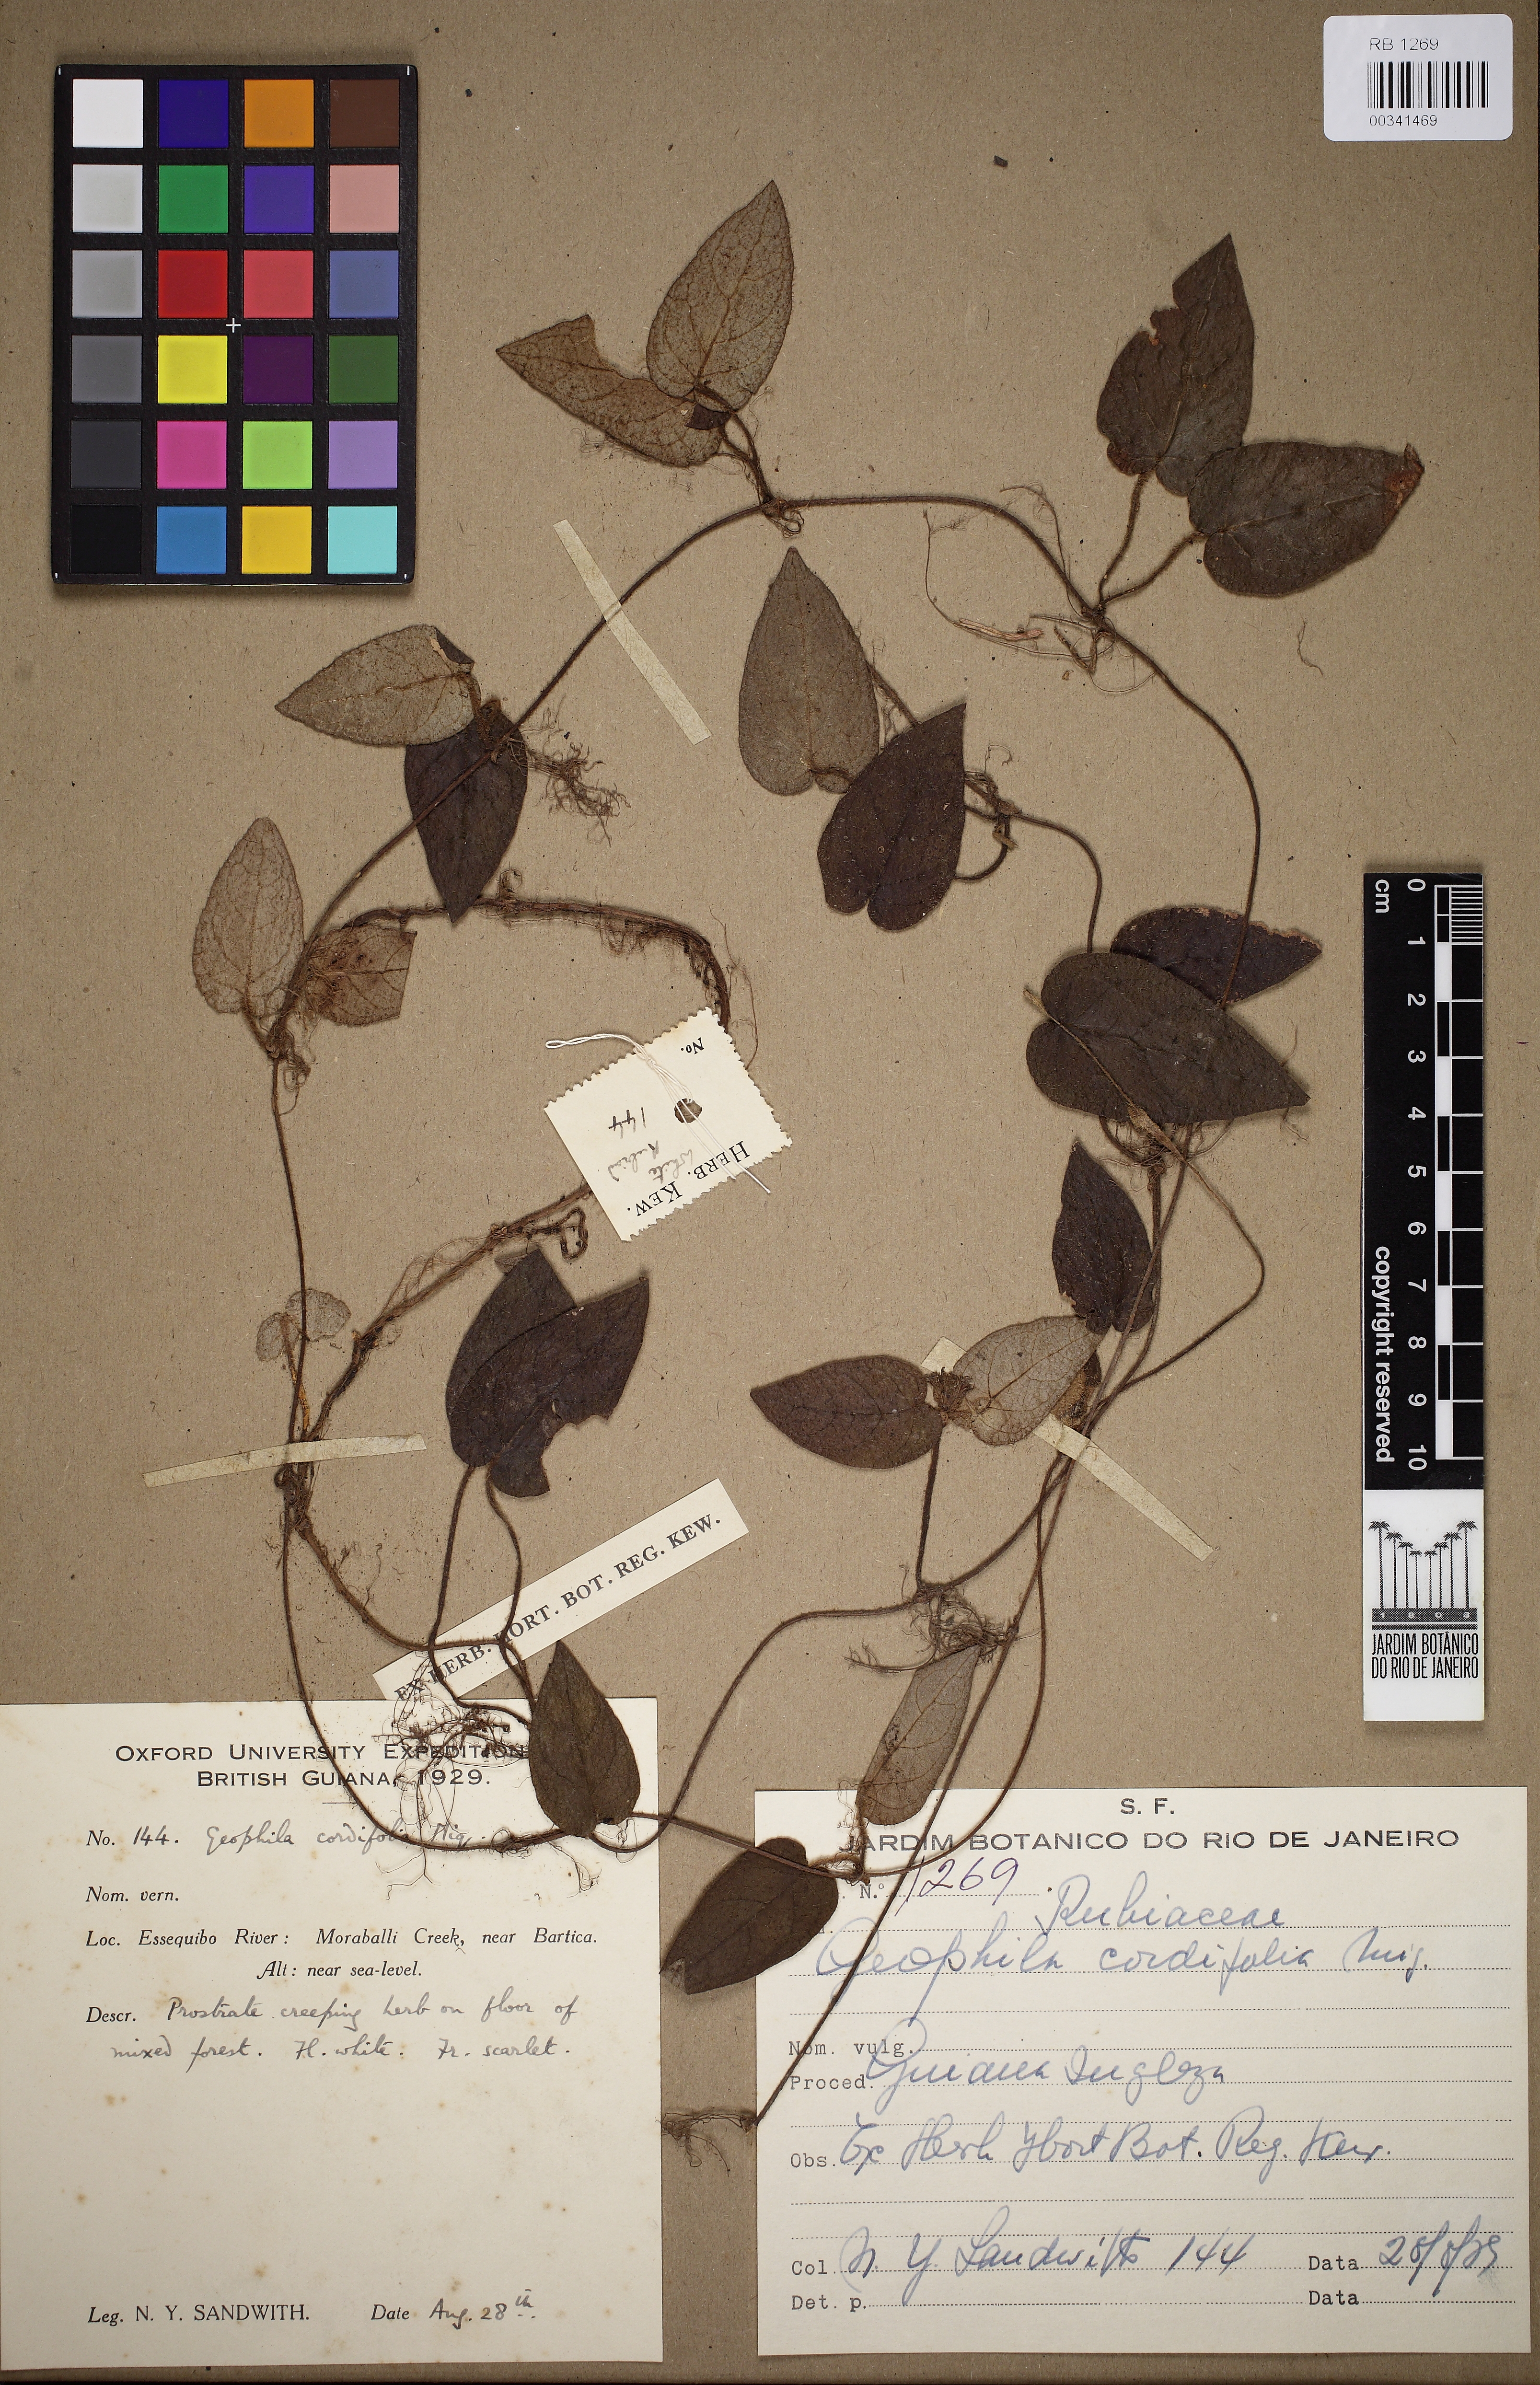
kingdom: Plantae
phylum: Tracheophyta
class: Magnoliopsida
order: Gentianales
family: Rubiaceae
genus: Geophila
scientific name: Geophila cordifolia
